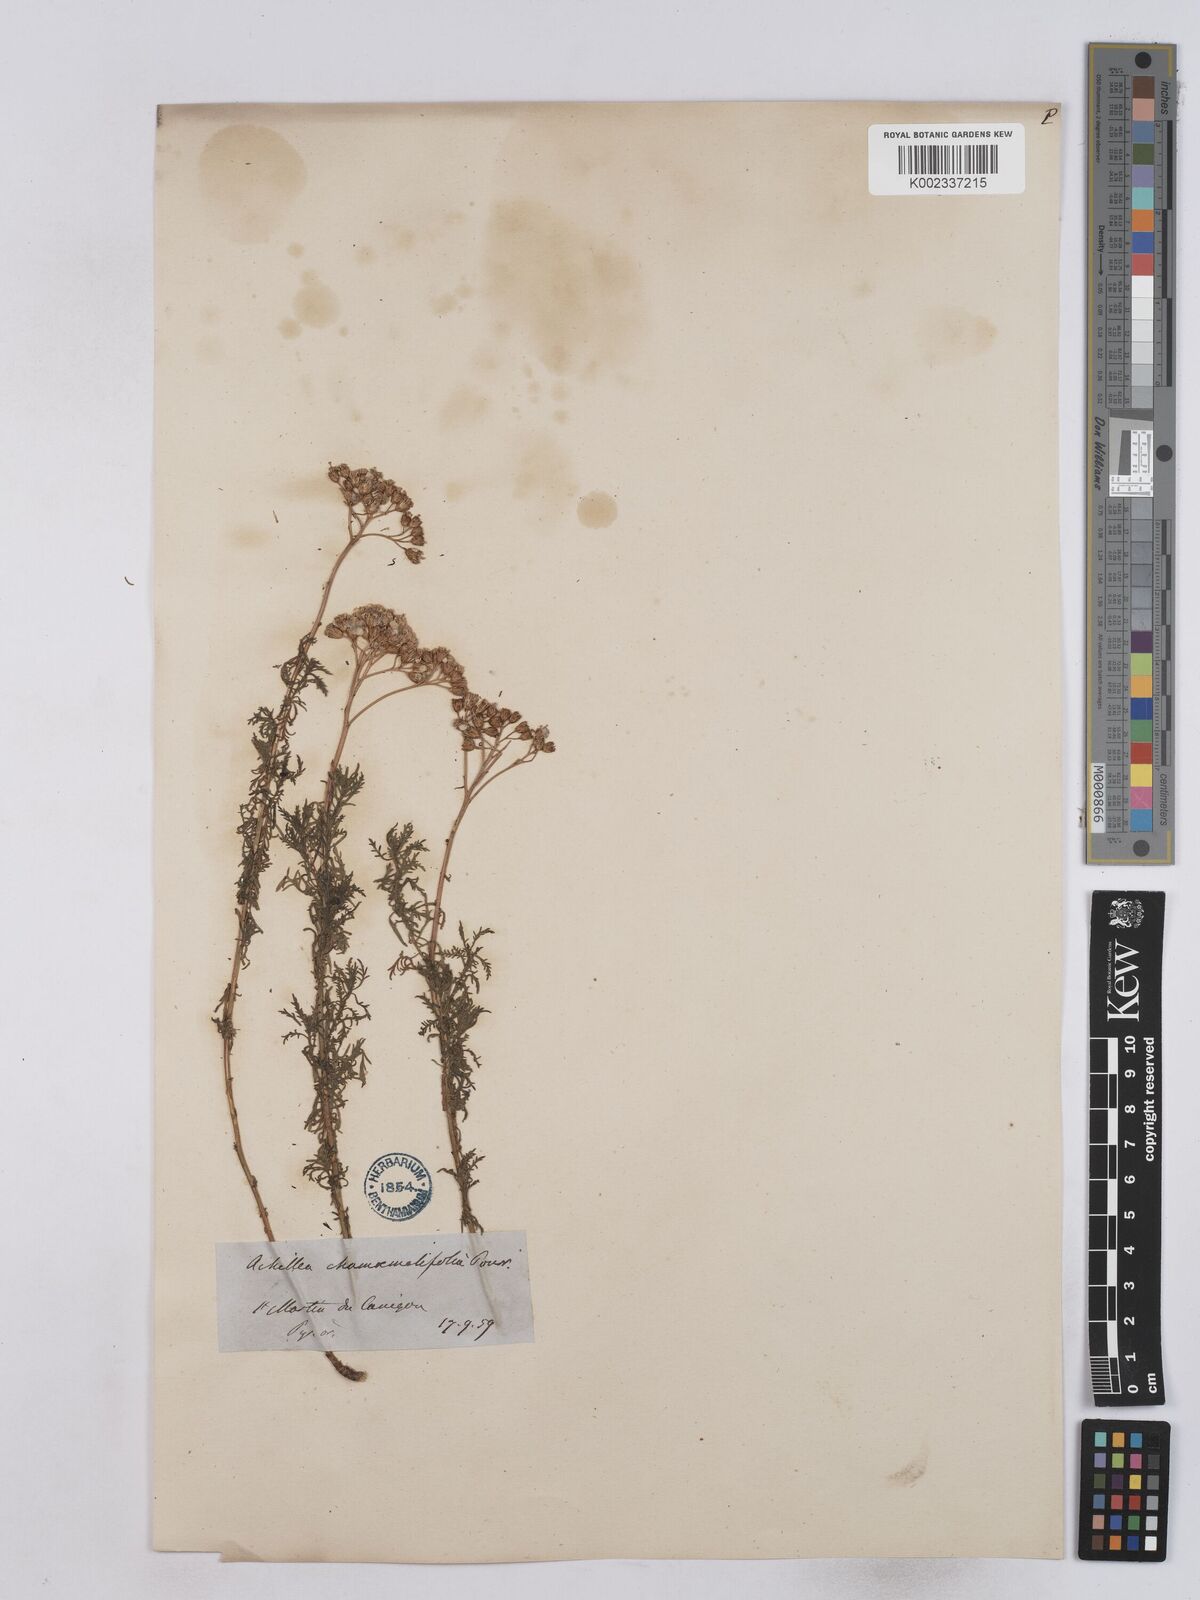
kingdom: Plantae
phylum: Tracheophyta
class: Magnoliopsida
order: Asterales
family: Asteraceae
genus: Achillea
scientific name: Achillea chamaemelifolia
